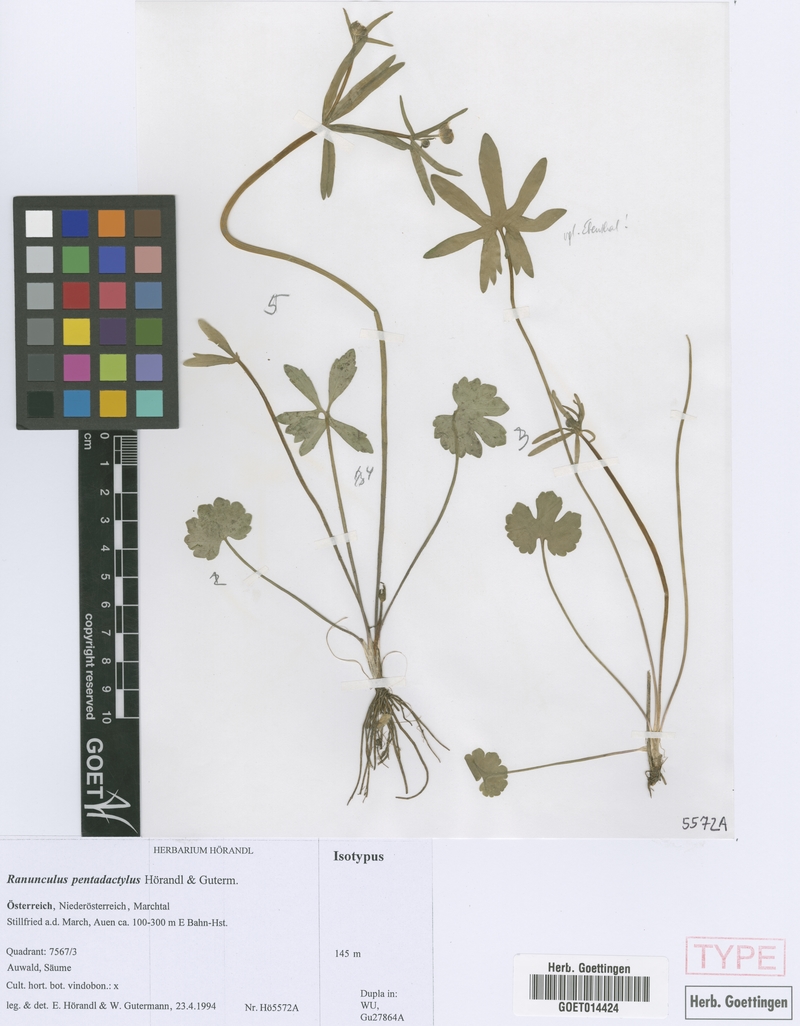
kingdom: Plantae
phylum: Tracheophyta
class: Magnoliopsida
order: Ranunculales
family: Ranunculaceae
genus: Ranunculus
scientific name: Ranunculus pentadactylus
